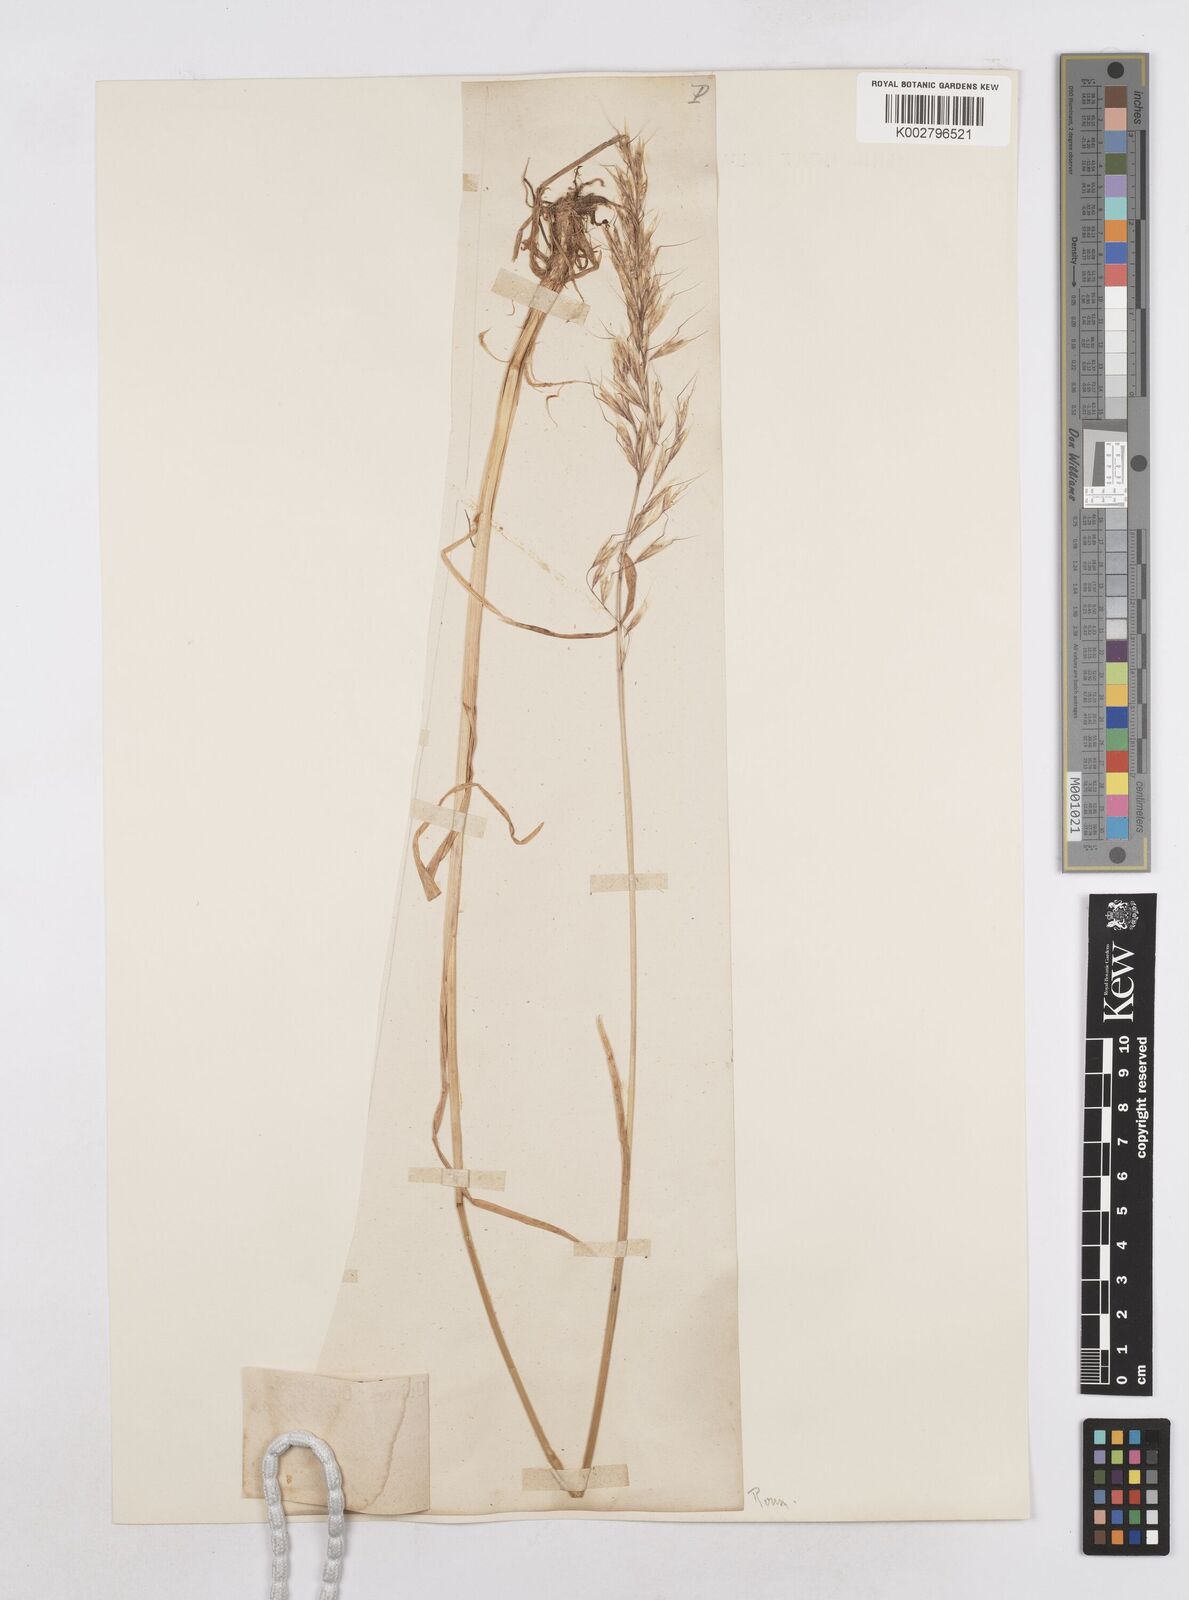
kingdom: Plantae
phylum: Tracheophyta
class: Liliopsida
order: Poales
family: Poaceae
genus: Arrhenatherum
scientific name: Arrhenatherum elatius
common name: Tall oatgrass
